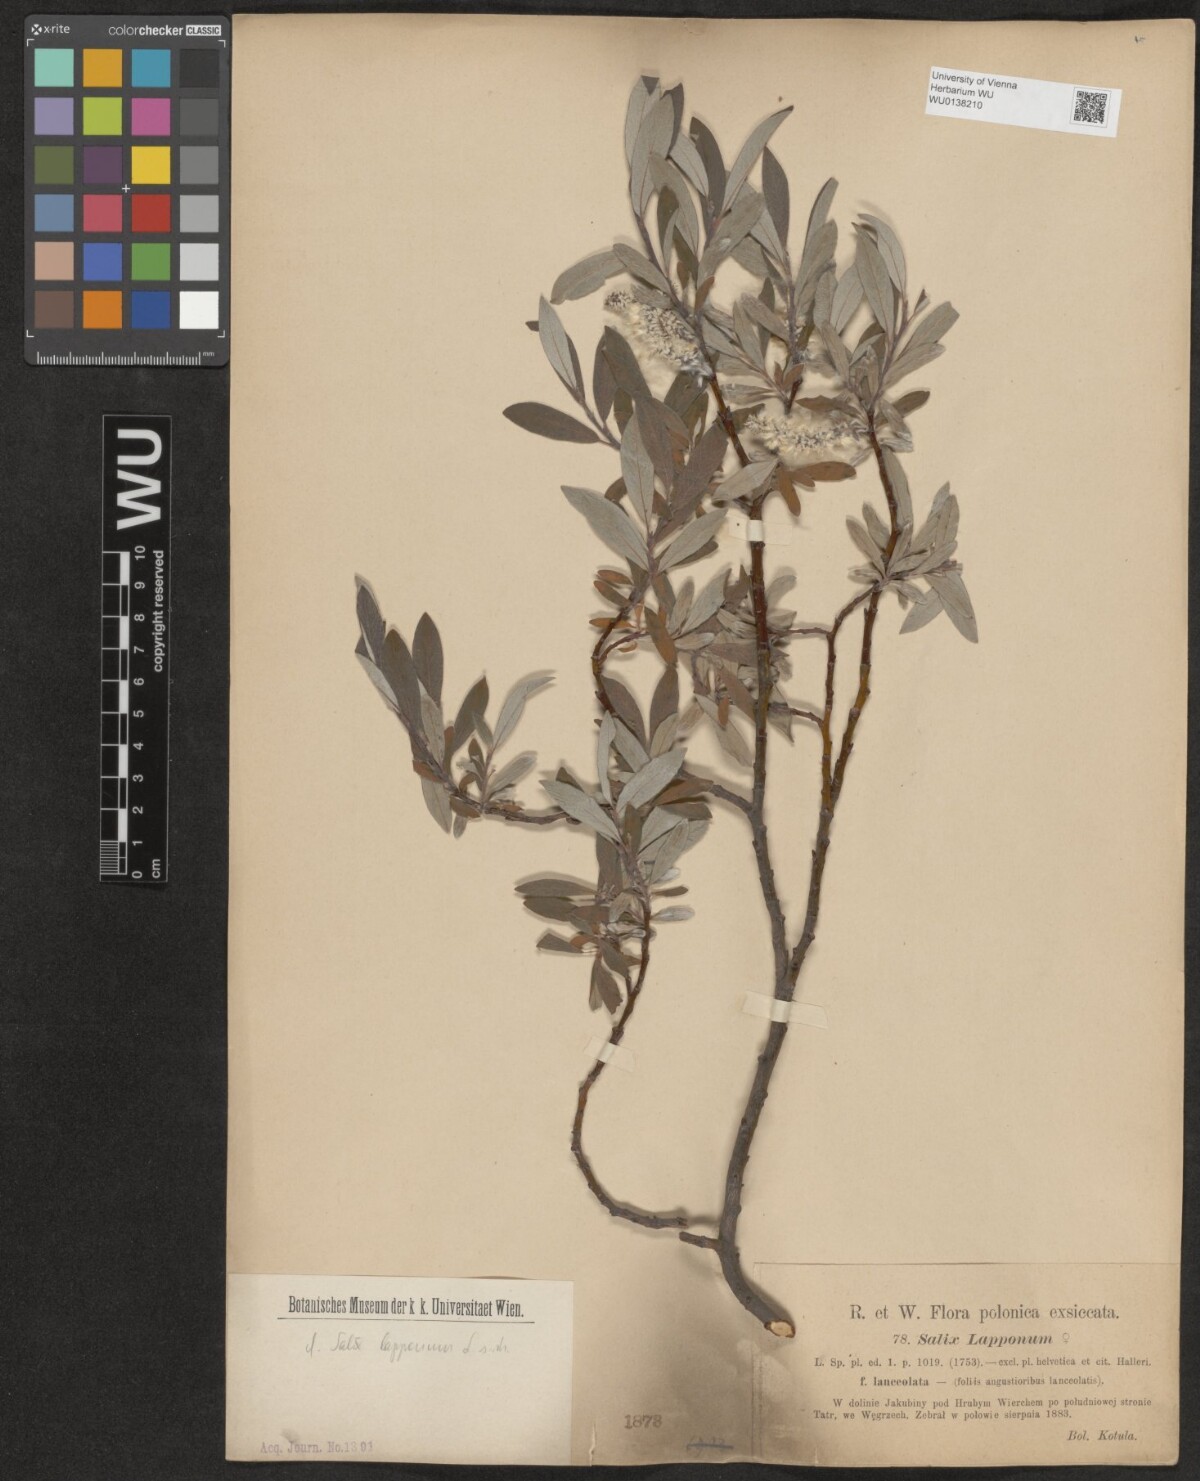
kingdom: Plantae
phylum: Tracheophyta
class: Magnoliopsida
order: Malpighiales
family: Salicaceae
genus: Salix
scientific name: Salix lapponum
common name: Downy willow
